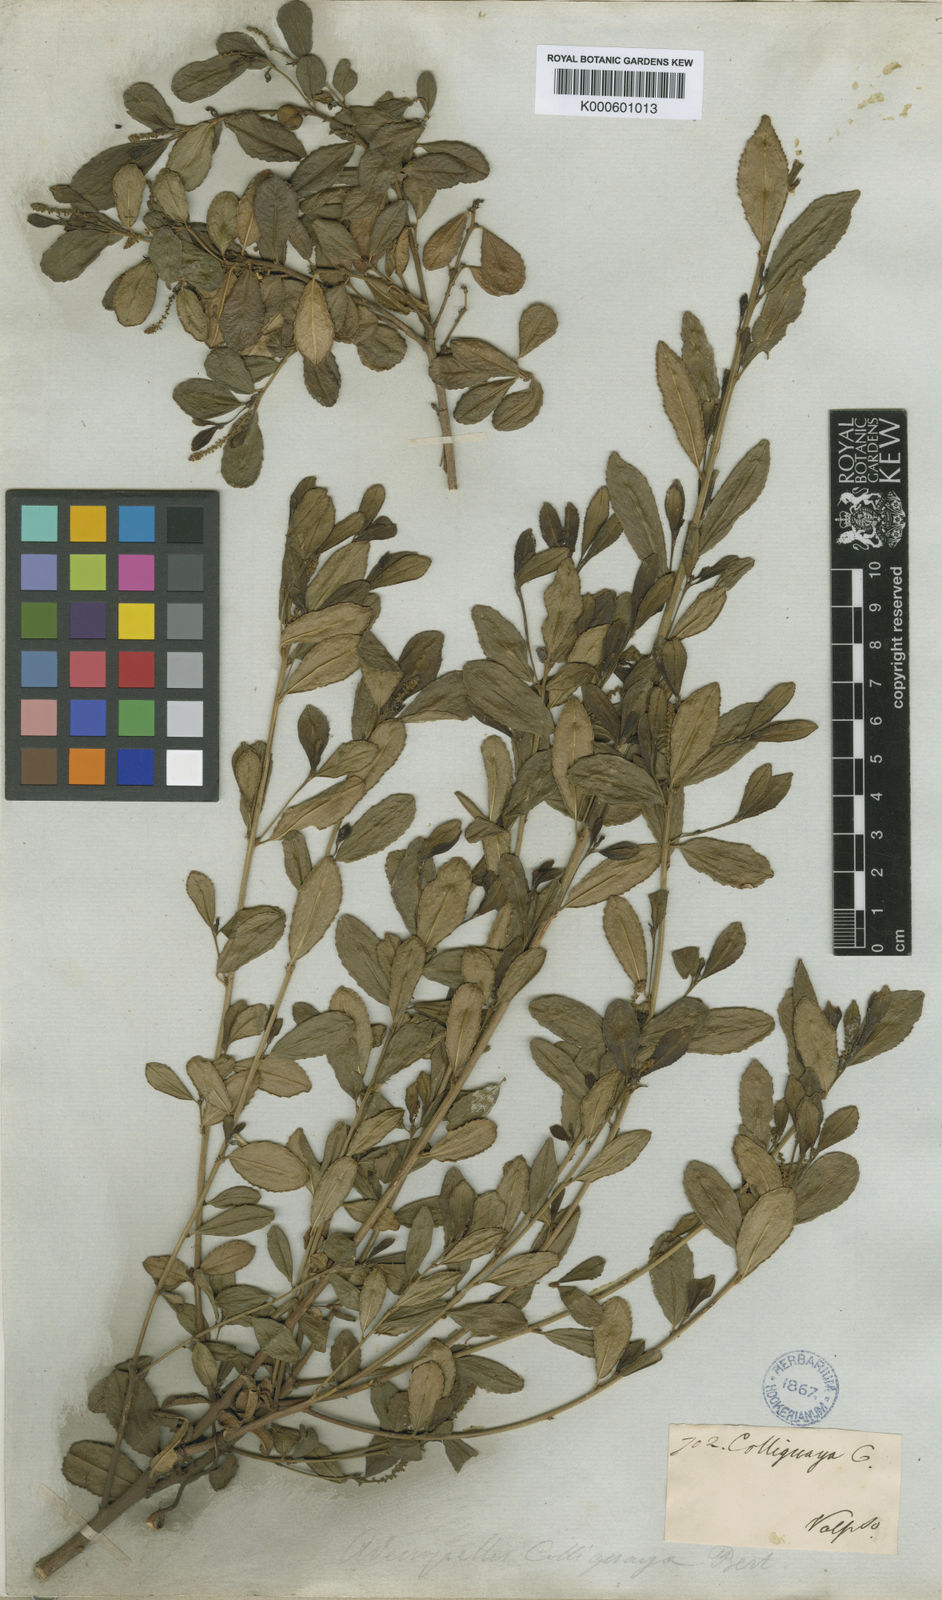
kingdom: Plantae
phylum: Tracheophyta
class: Magnoliopsida
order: Malpighiales
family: Euphorbiaceae
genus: Adenopeltis
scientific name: Adenopeltis
